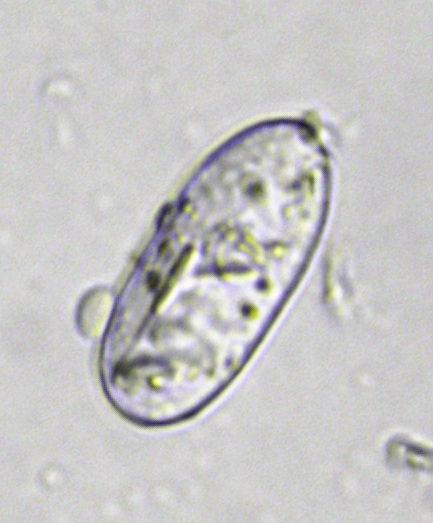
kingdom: Fungi
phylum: Ascomycota
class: Leotiomycetes
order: Helotiales
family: Erysiphaceae
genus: Podosphaera
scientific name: Podosphaera tridactyla
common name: Plum mildew
